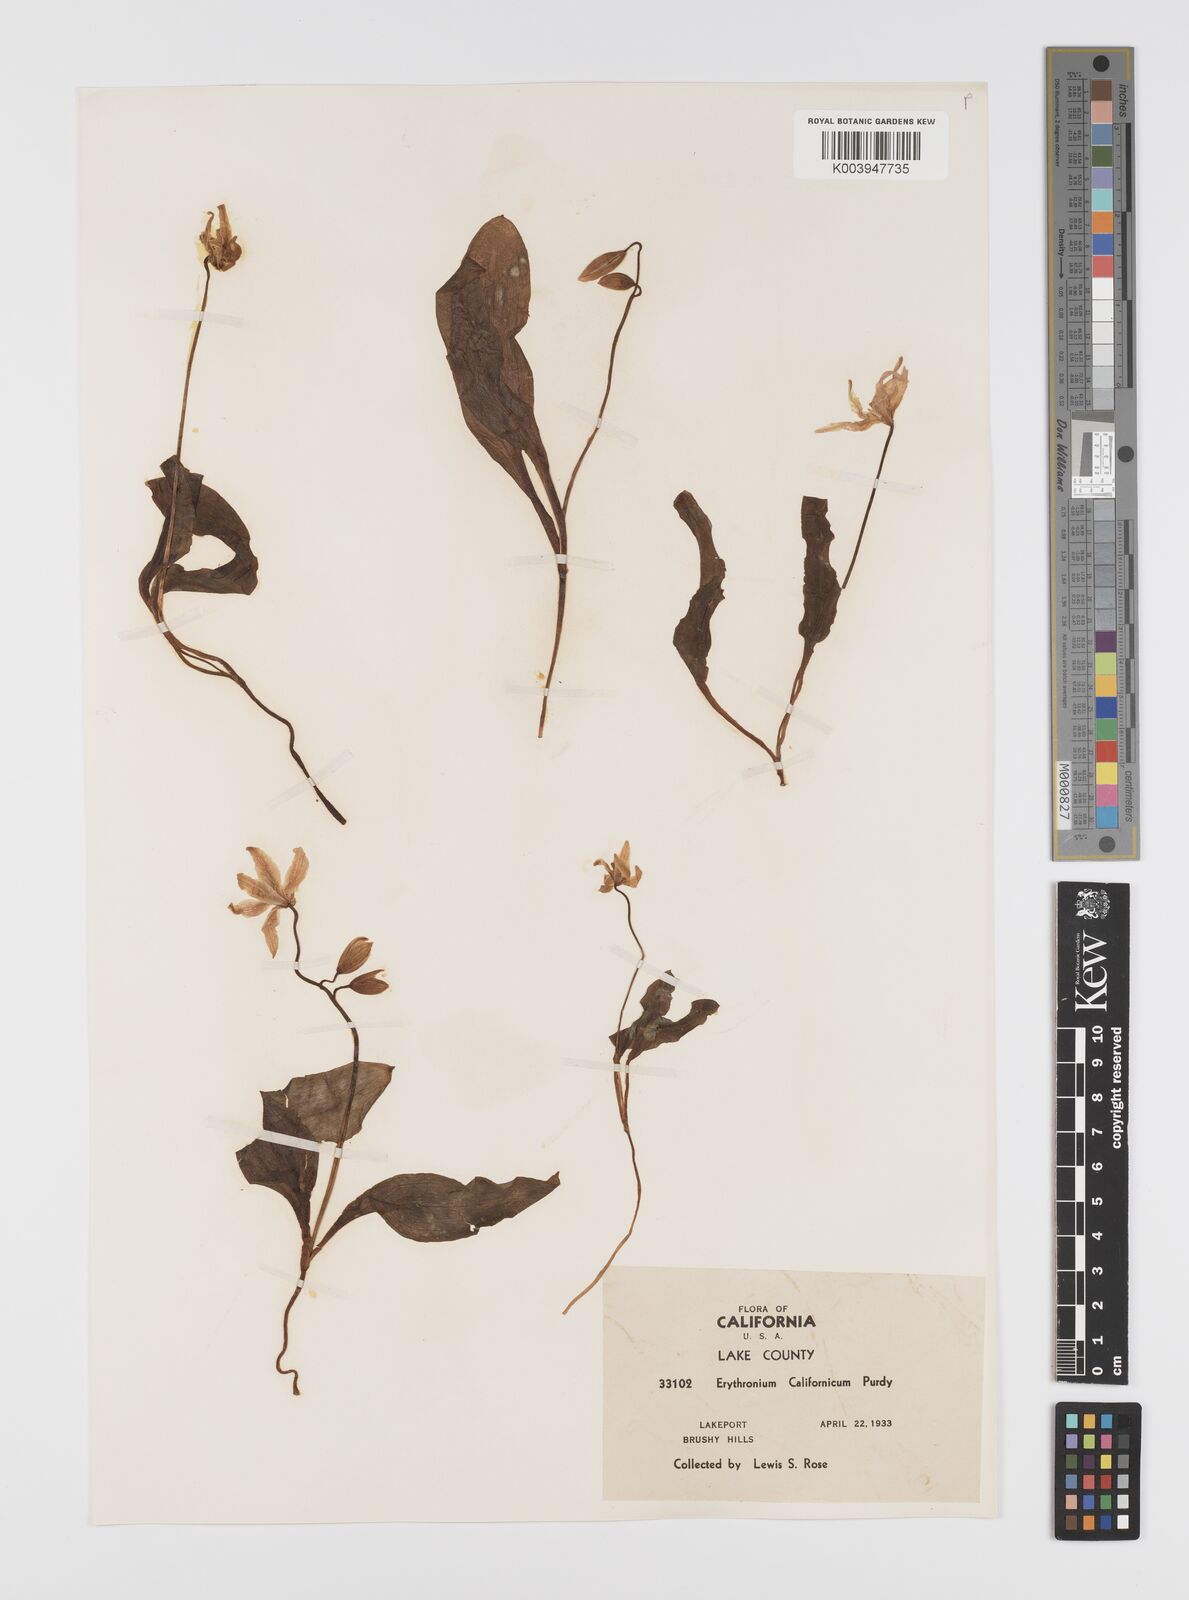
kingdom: Plantae
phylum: Tracheophyta
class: Liliopsida
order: Liliales
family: Liliaceae
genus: Erythronium
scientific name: Erythronium californicum
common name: Fawn-lily
